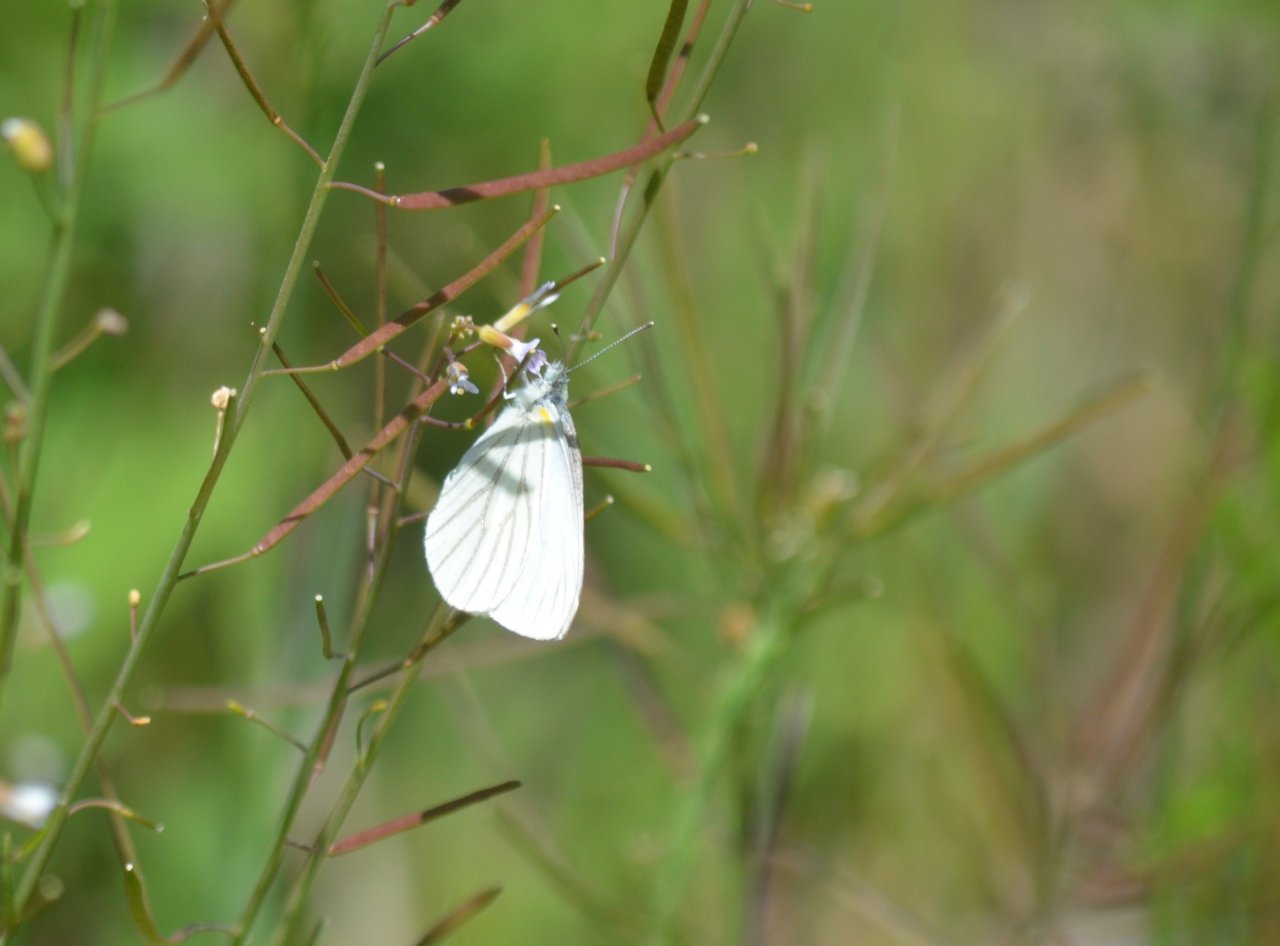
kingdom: Animalia
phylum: Arthropoda
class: Insecta
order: Lepidoptera
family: Pieridae
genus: Pieris
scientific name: Pieris oleracea
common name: Mustard White
